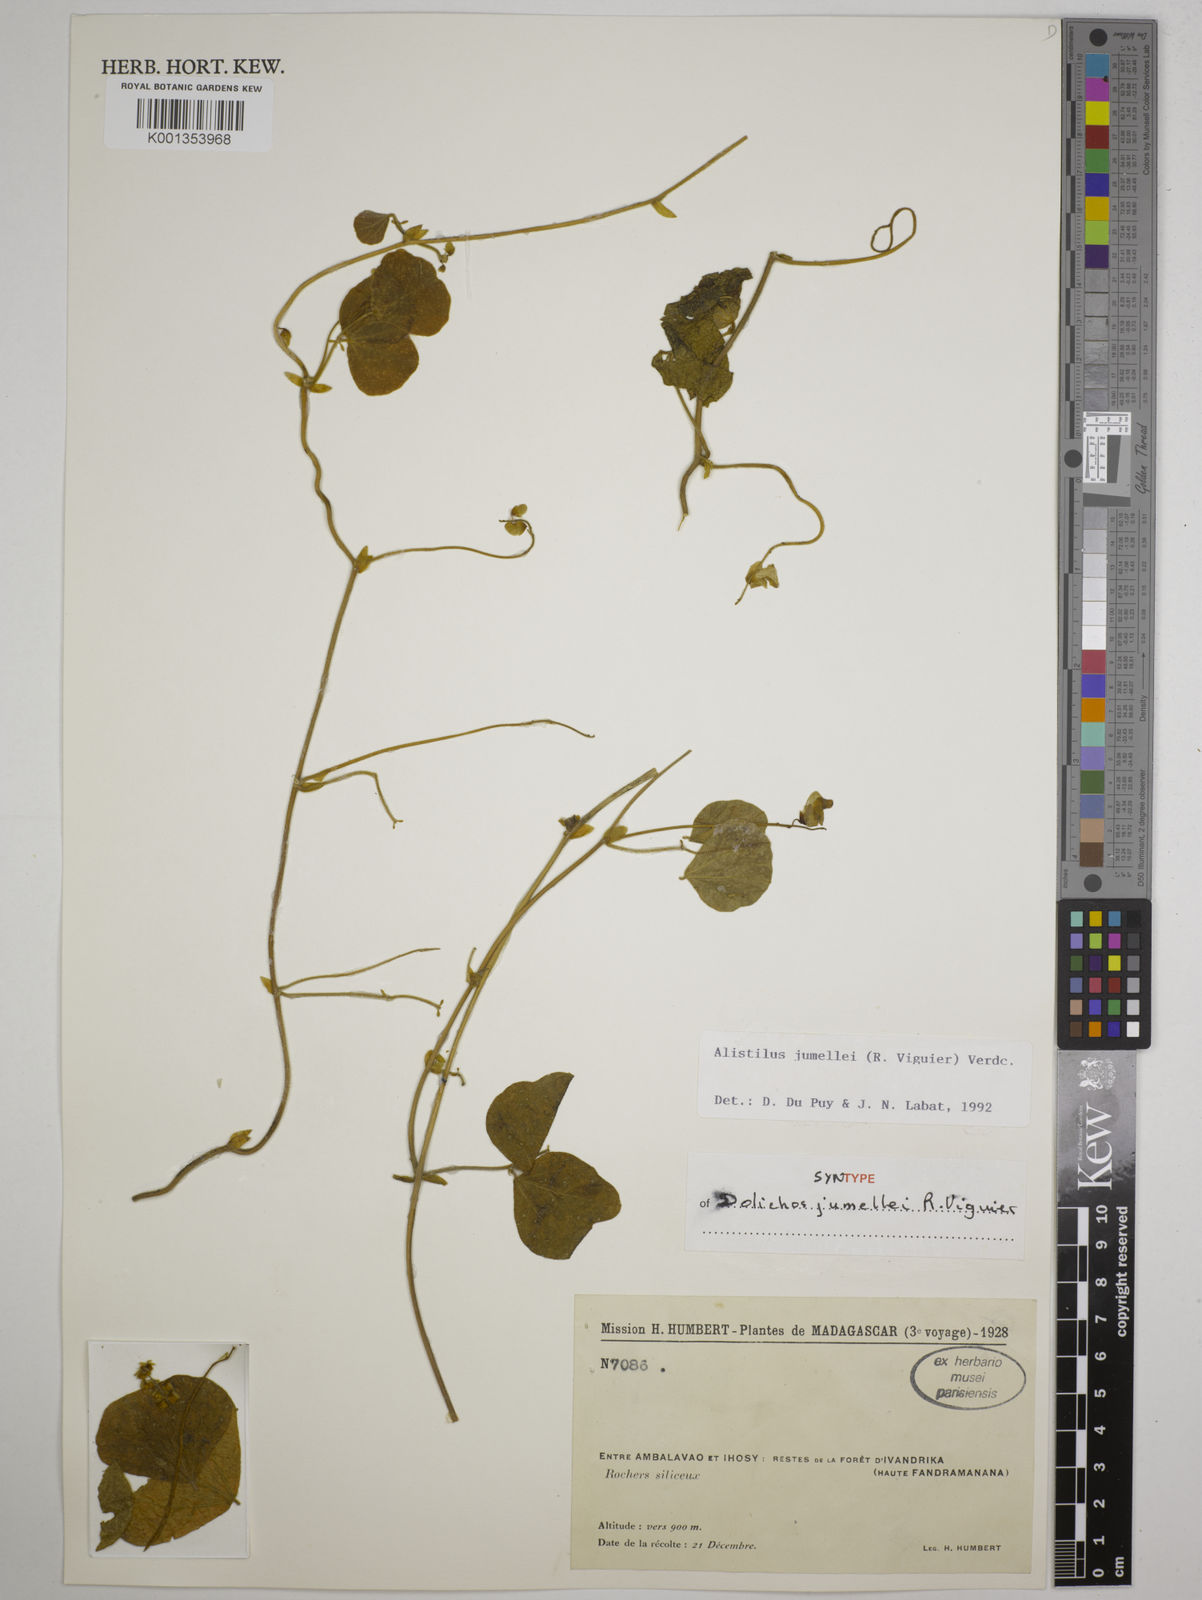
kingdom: Plantae
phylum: Tracheophyta
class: Magnoliopsida
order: Fabales
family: Fabaceae
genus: Alistilus
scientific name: Alistilus jumellei
